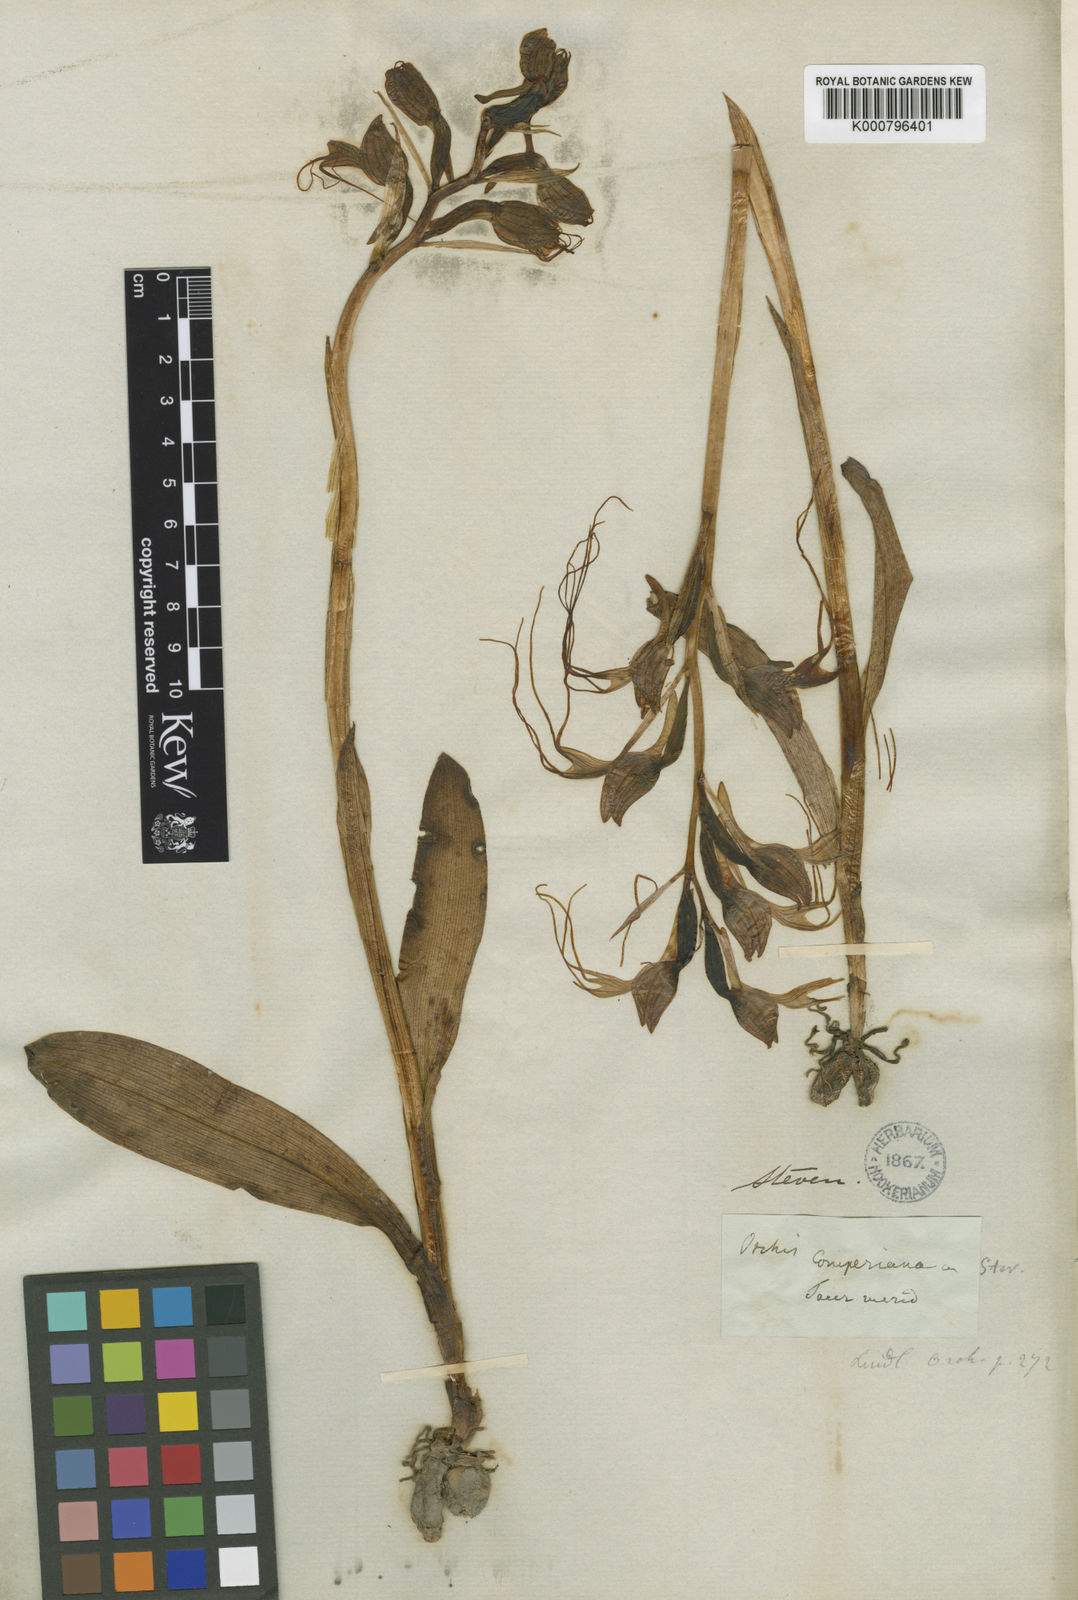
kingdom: Plantae
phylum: Tracheophyta
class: Liliopsida
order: Asparagales
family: Orchidaceae
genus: Himantoglossum
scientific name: Himantoglossum comperianum
